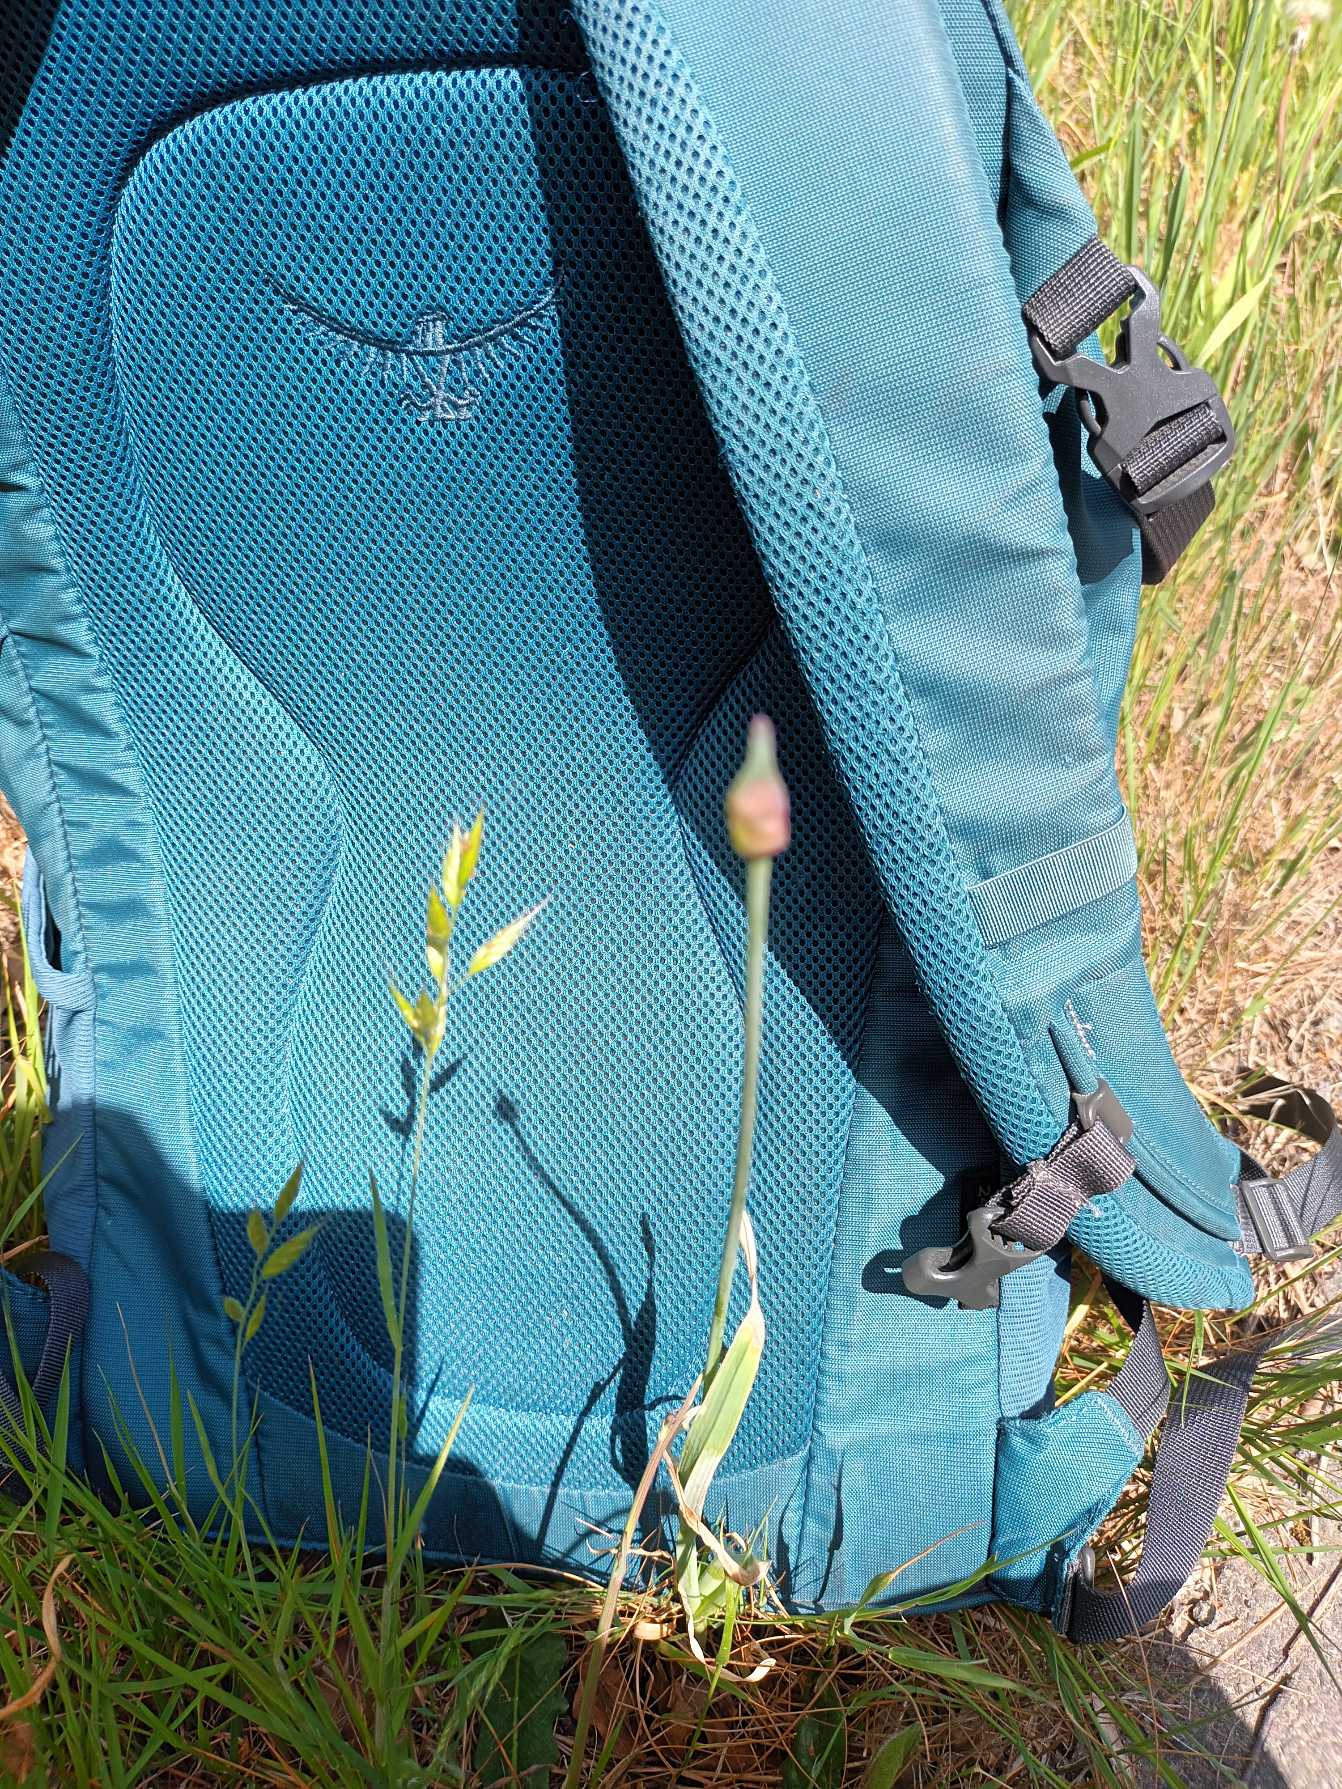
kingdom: Plantae
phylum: Tracheophyta
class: Liliopsida
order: Poales
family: Poaceae
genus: Bromus
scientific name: Bromus hordeaceus
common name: Blød hejre
